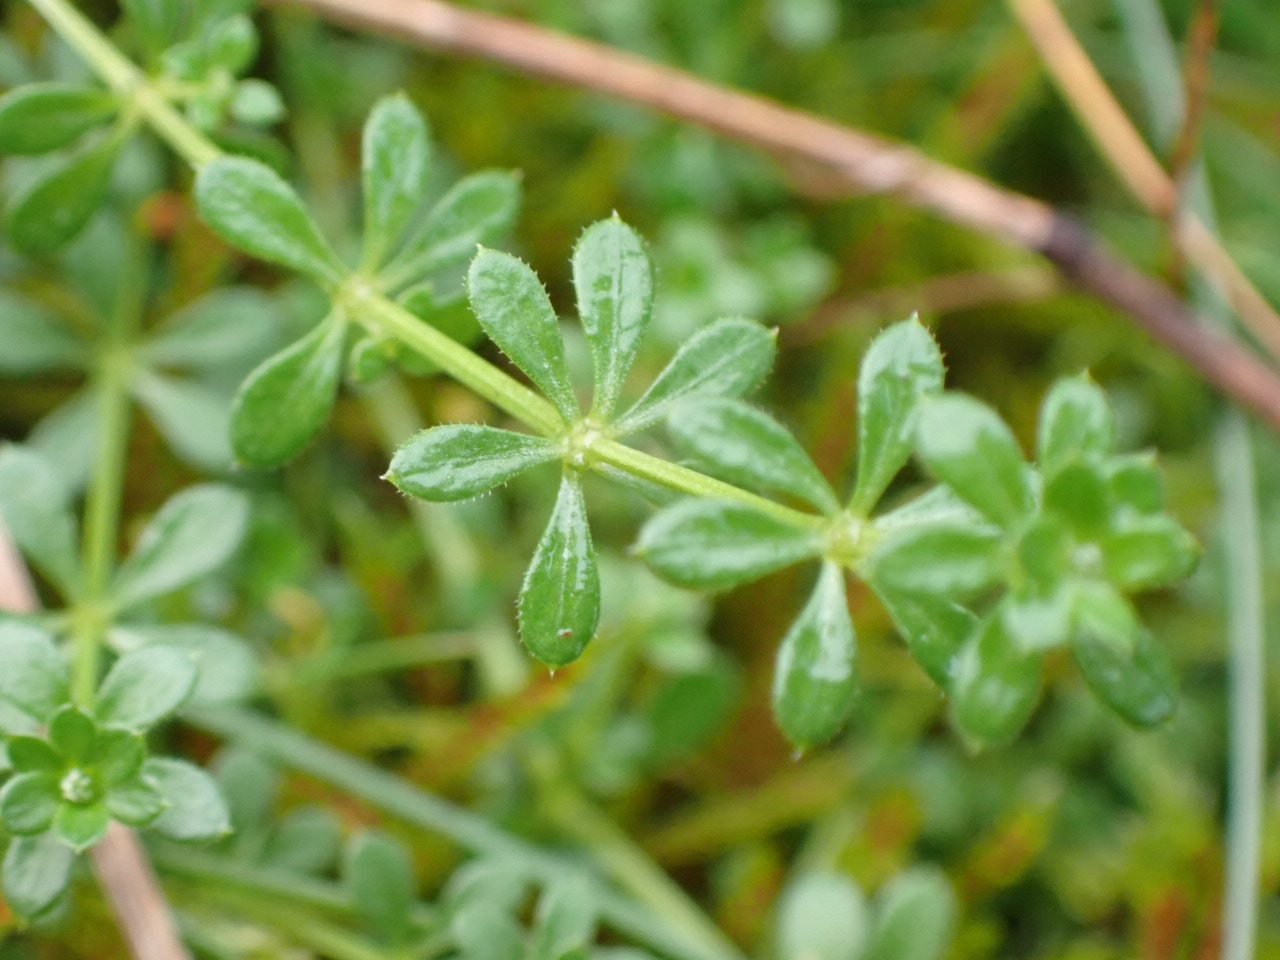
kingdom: Plantae
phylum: Tracheophyta
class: Magnoliopsida
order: Gentianales
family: Rubiaceae
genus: Galium
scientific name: Galium saxatile
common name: Lyng-snerre
